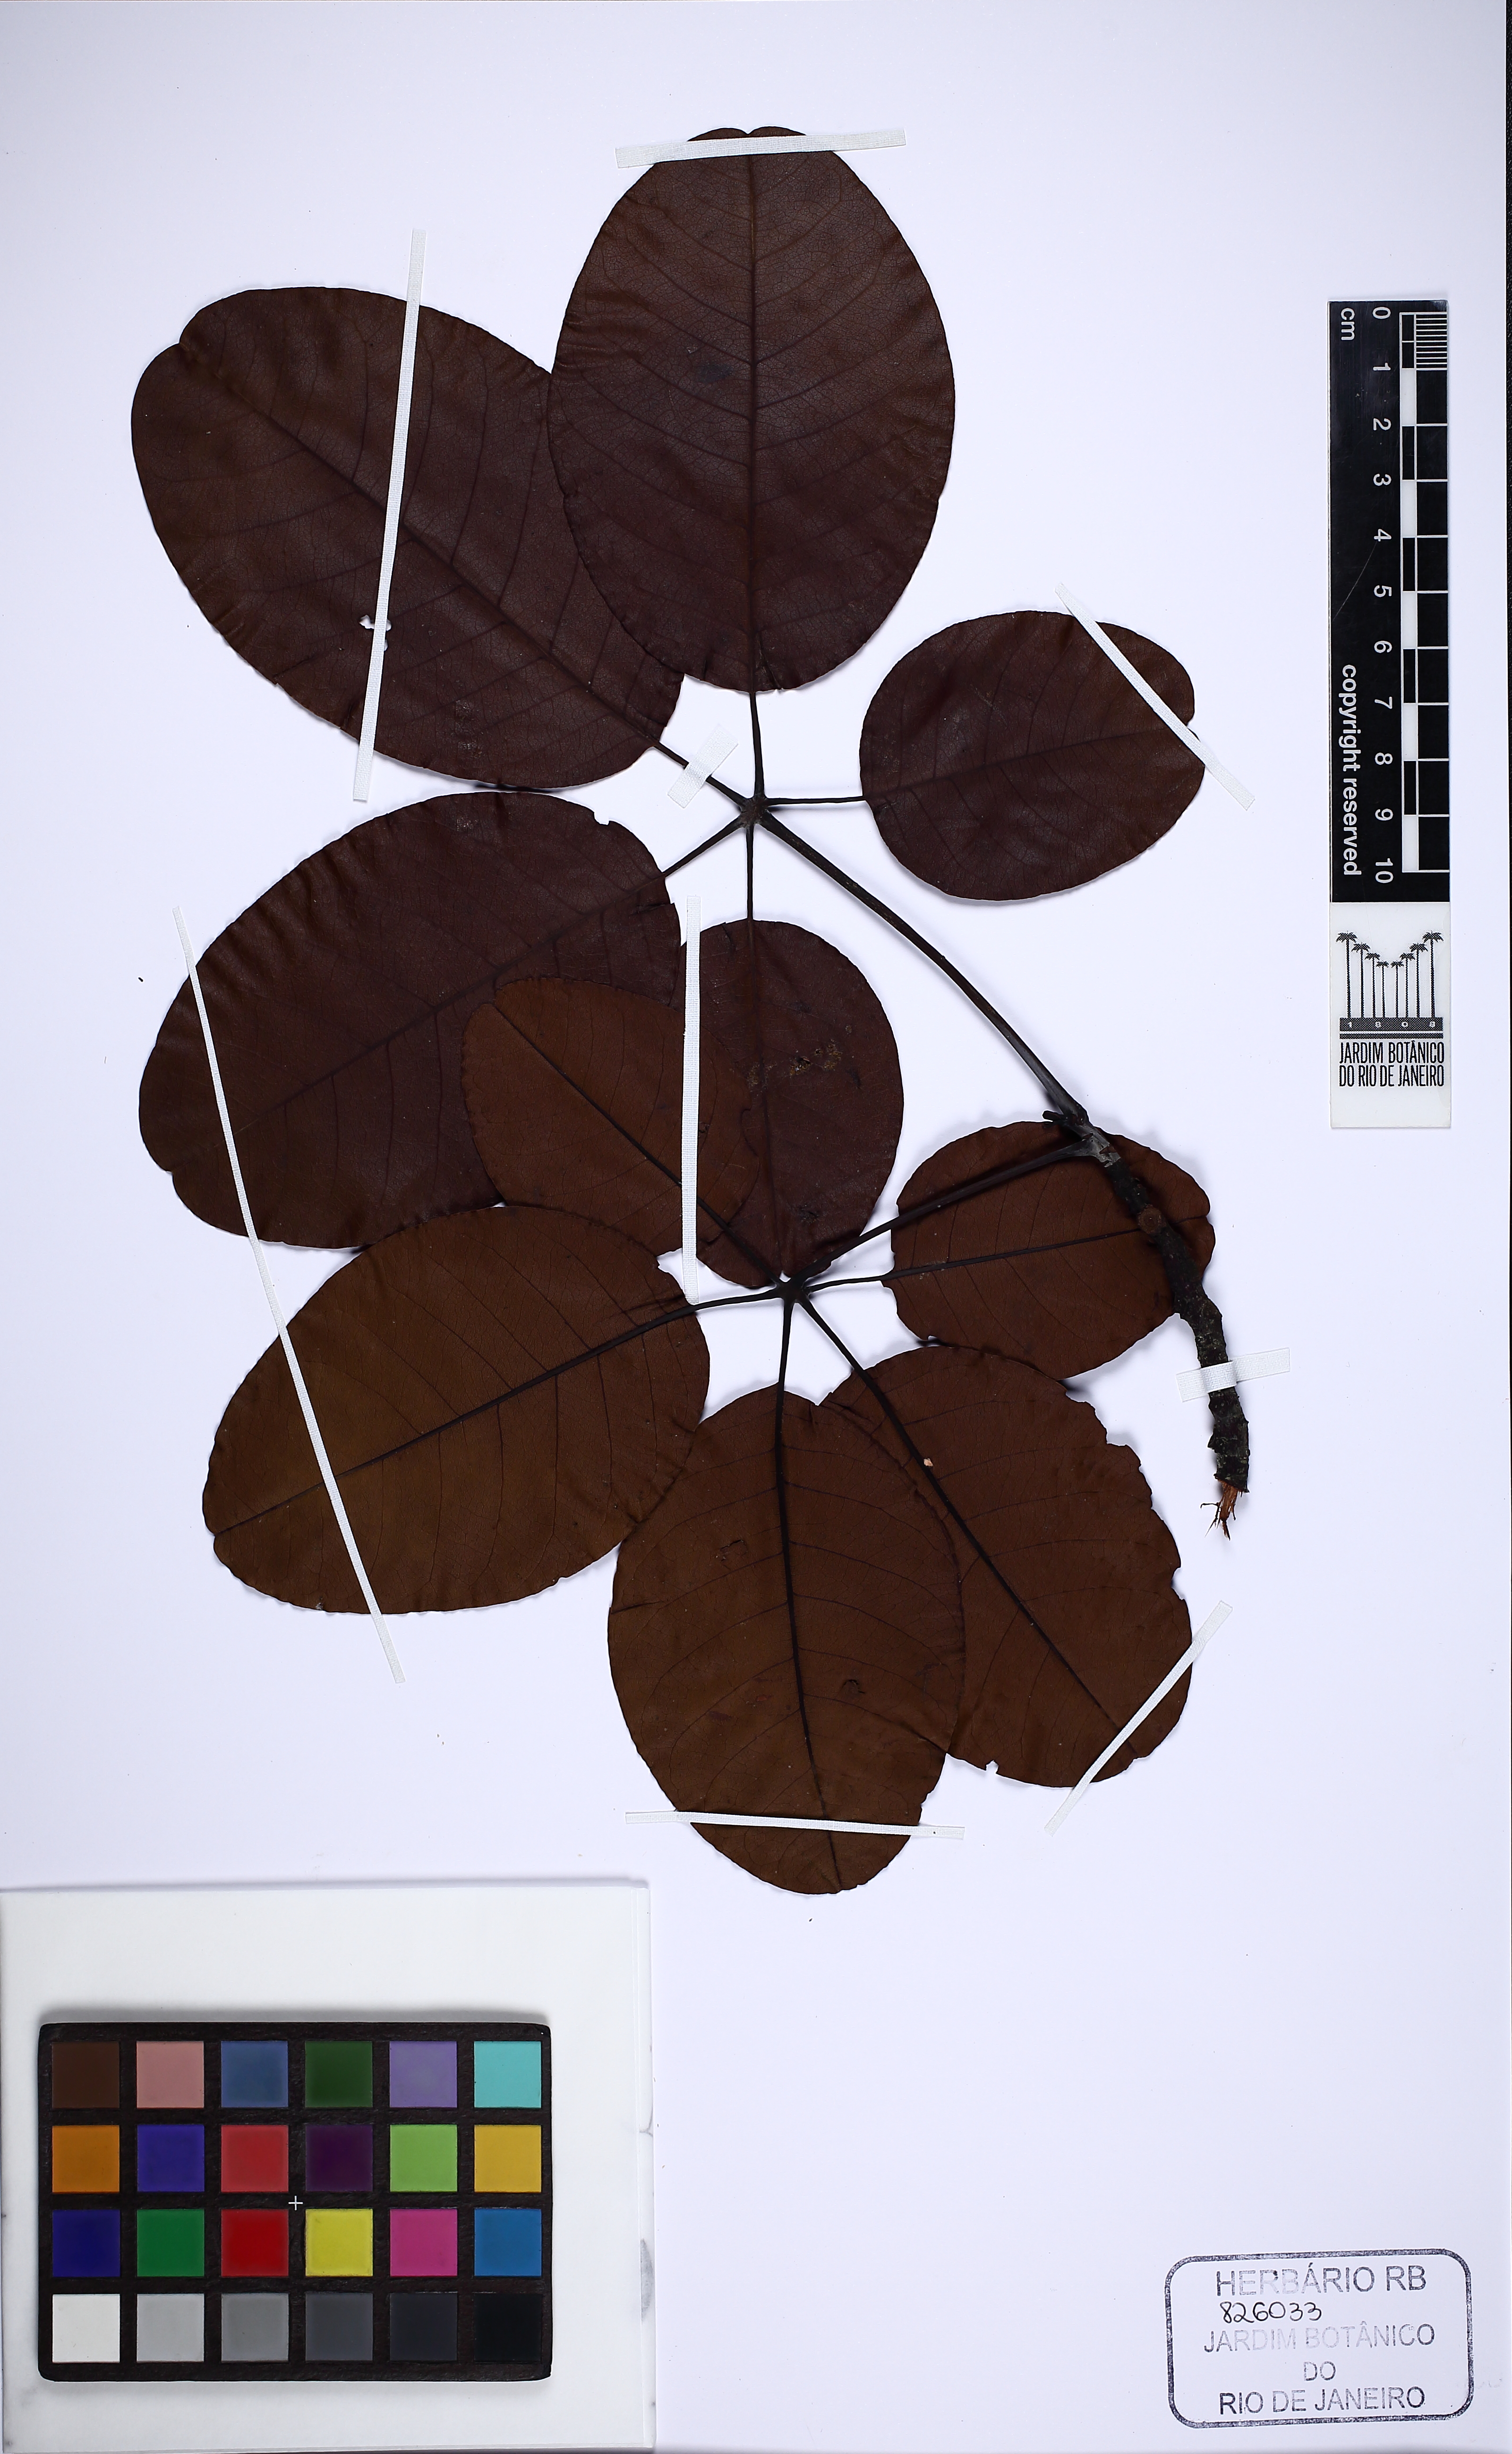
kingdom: Plantae
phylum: Tracheophyta
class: Magnoliopsida
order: Malvales
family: Malvaceae
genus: Pseudobombax
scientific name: Pseudobombax petropolitanum
